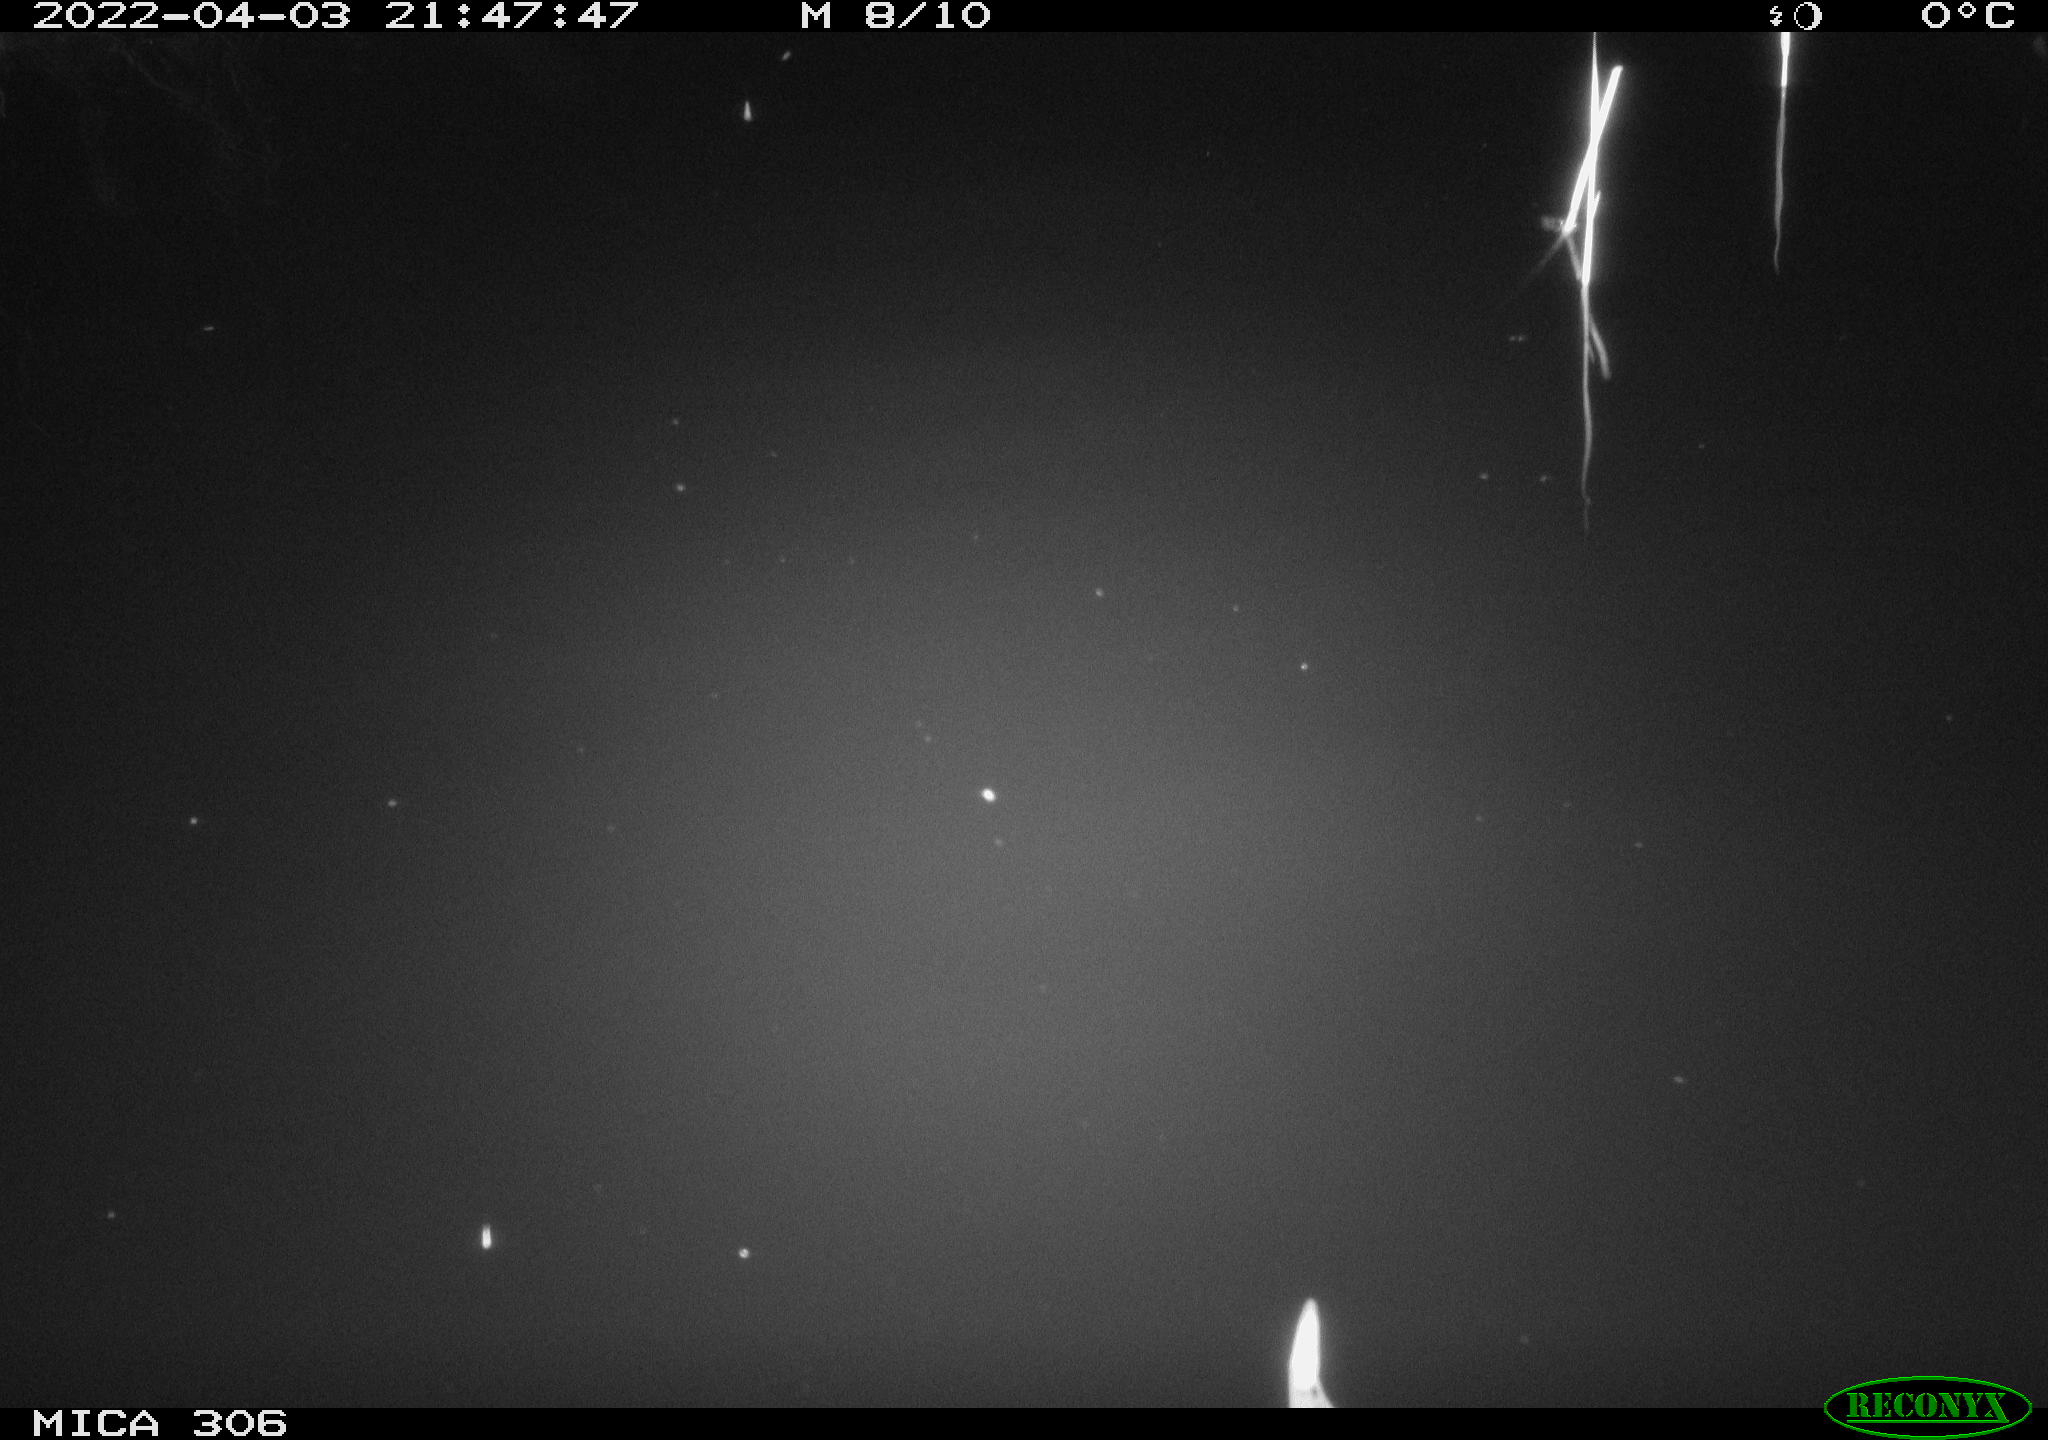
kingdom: Animalia
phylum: Chordata
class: Aves
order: Anseriformes
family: Anatidae
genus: Anas
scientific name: Anas platyrhynchos
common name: Mallard
